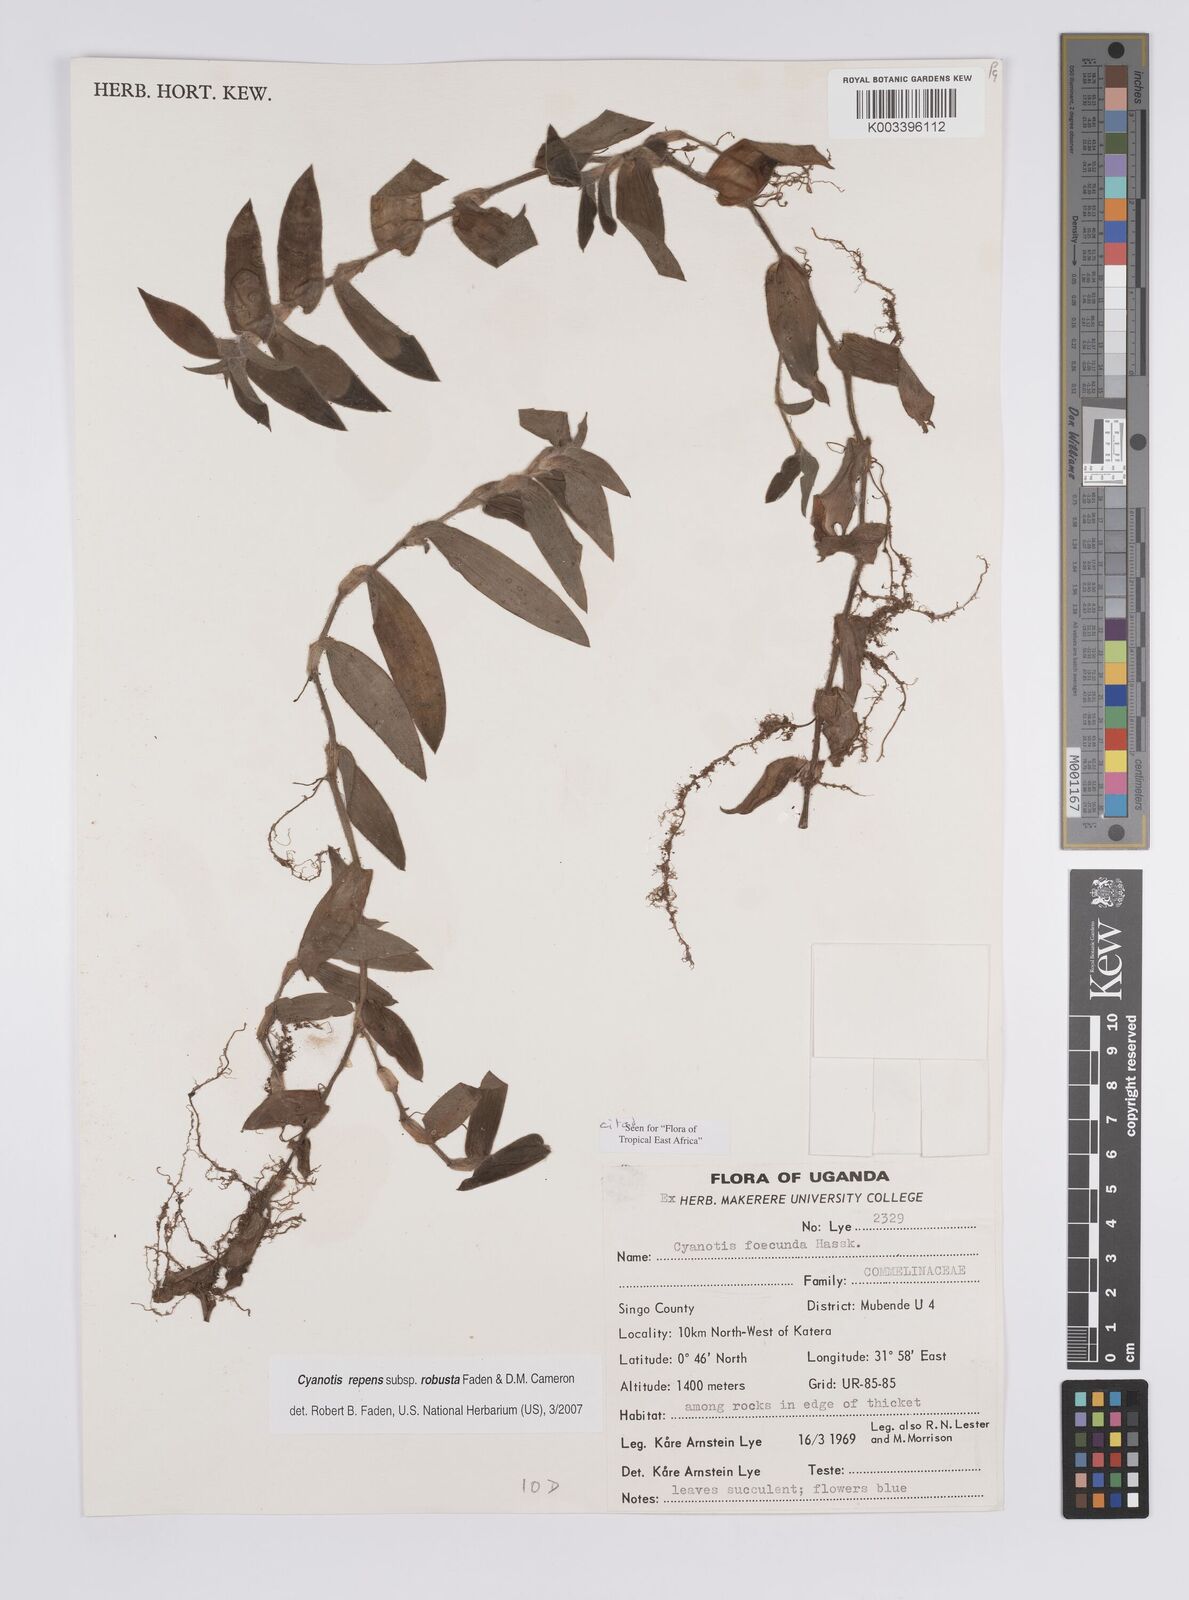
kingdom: Plantae
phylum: Tracheophyta
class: Liliopsida
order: Commelinales
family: Commelinaceae
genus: Cyanotis
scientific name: Cyanotis repens
